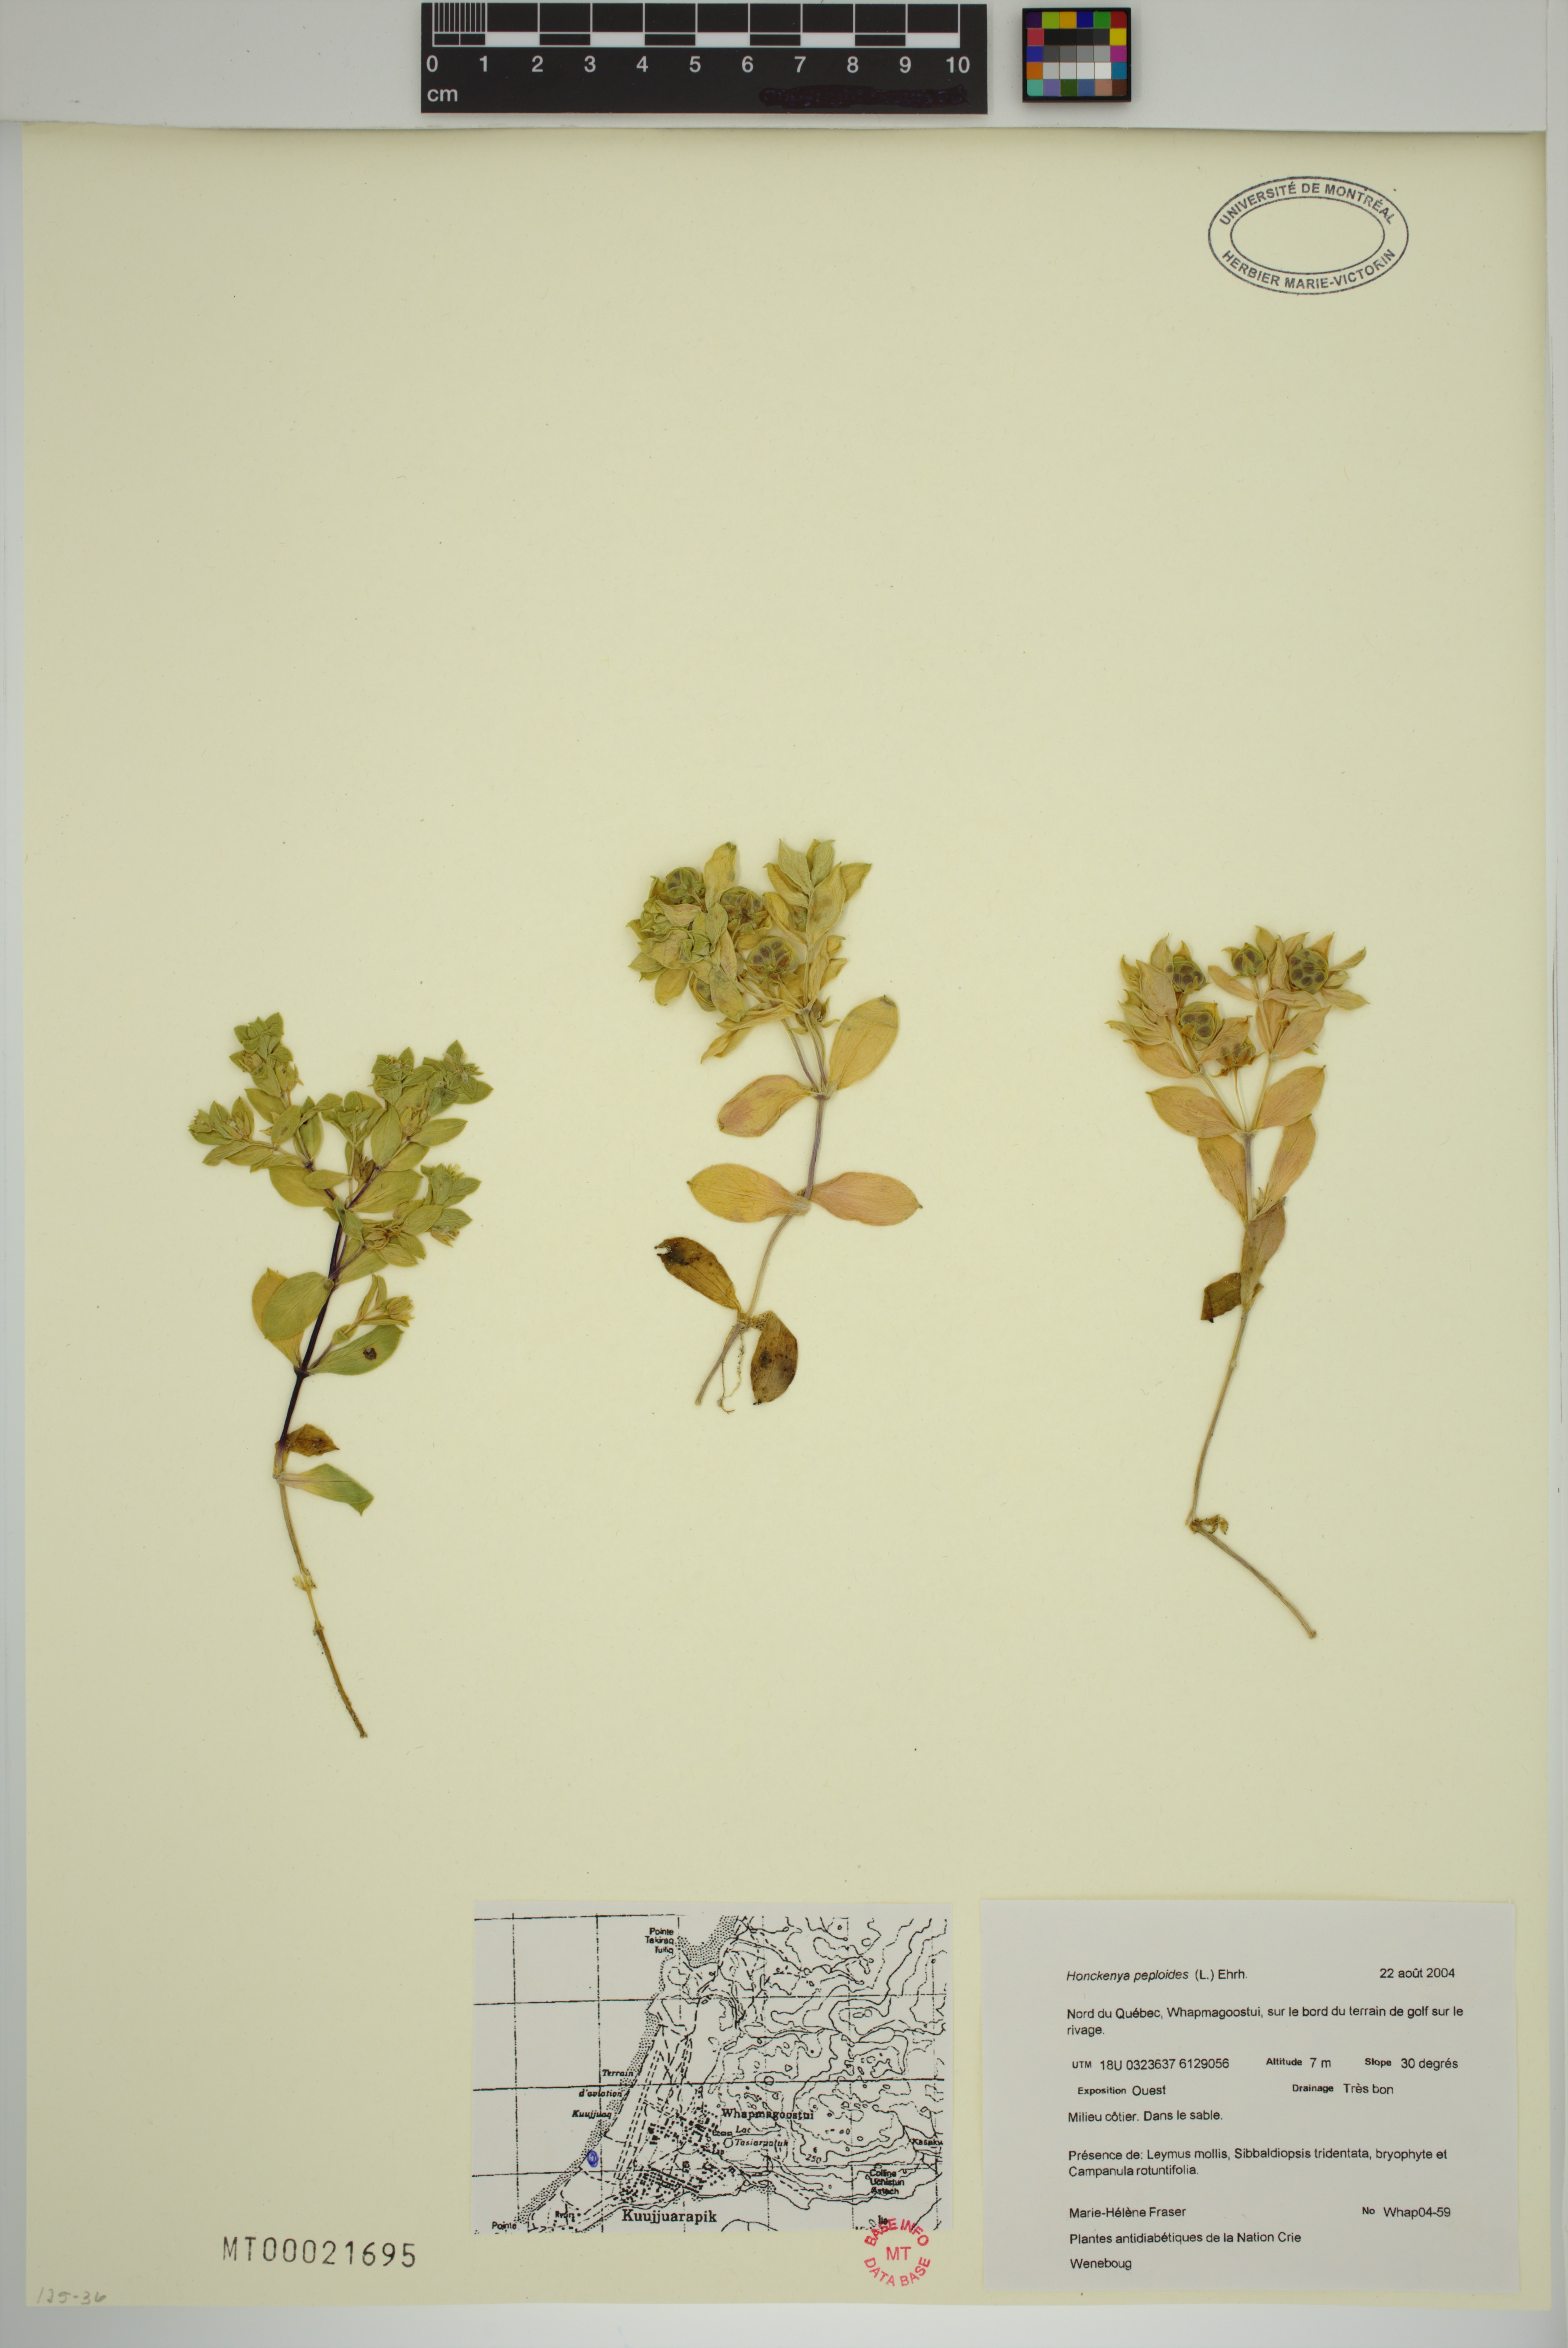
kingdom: Plantae
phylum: Tracheophyta
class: Magnoliopsida
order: Caryophyllales
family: Caryophyllaceae
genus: Honckenya
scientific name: Honckenya peploides
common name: Sea sandwort
